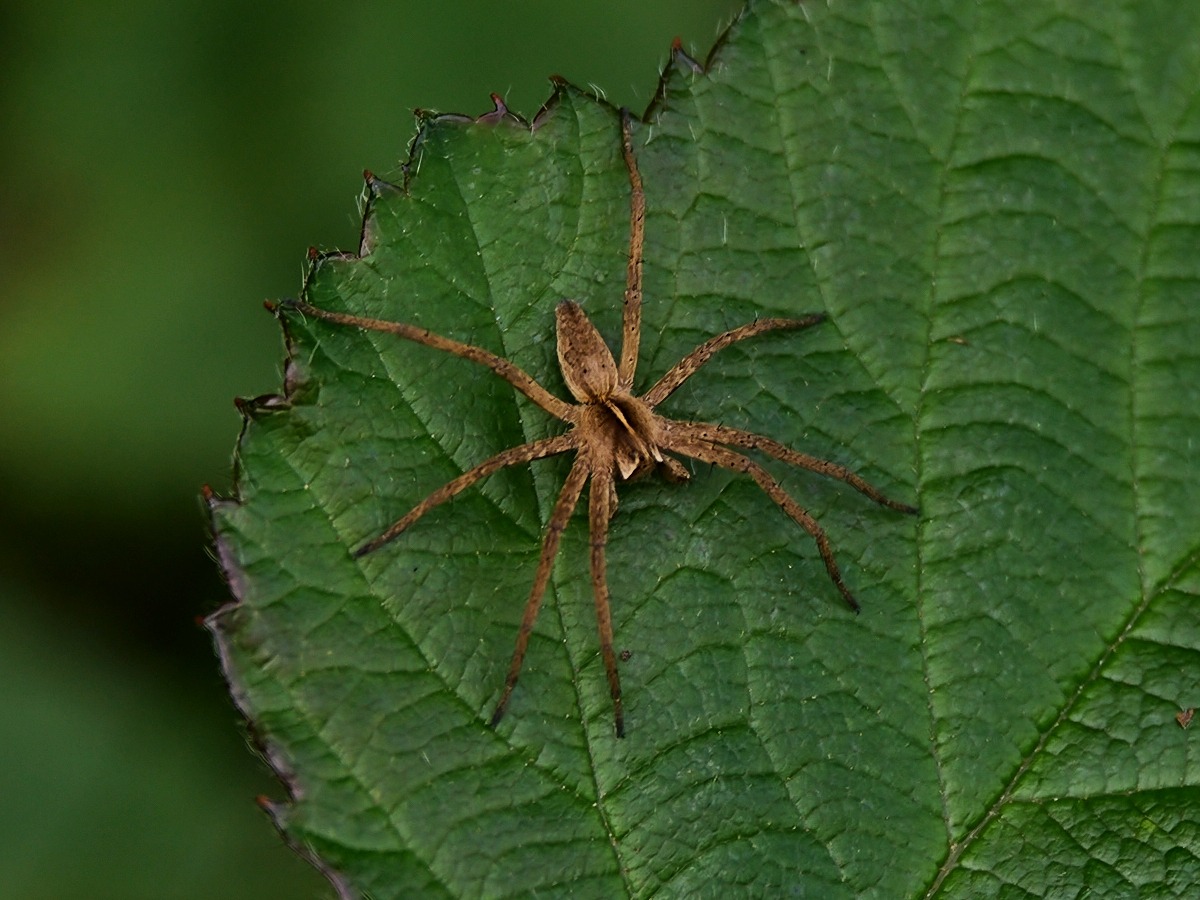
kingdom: Animalia
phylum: Arthropoda
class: Arachnida
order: Araneae
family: Pisauridae
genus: Pisaura
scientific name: Pisaura mirabilis
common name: Almindelig rovedderkop
